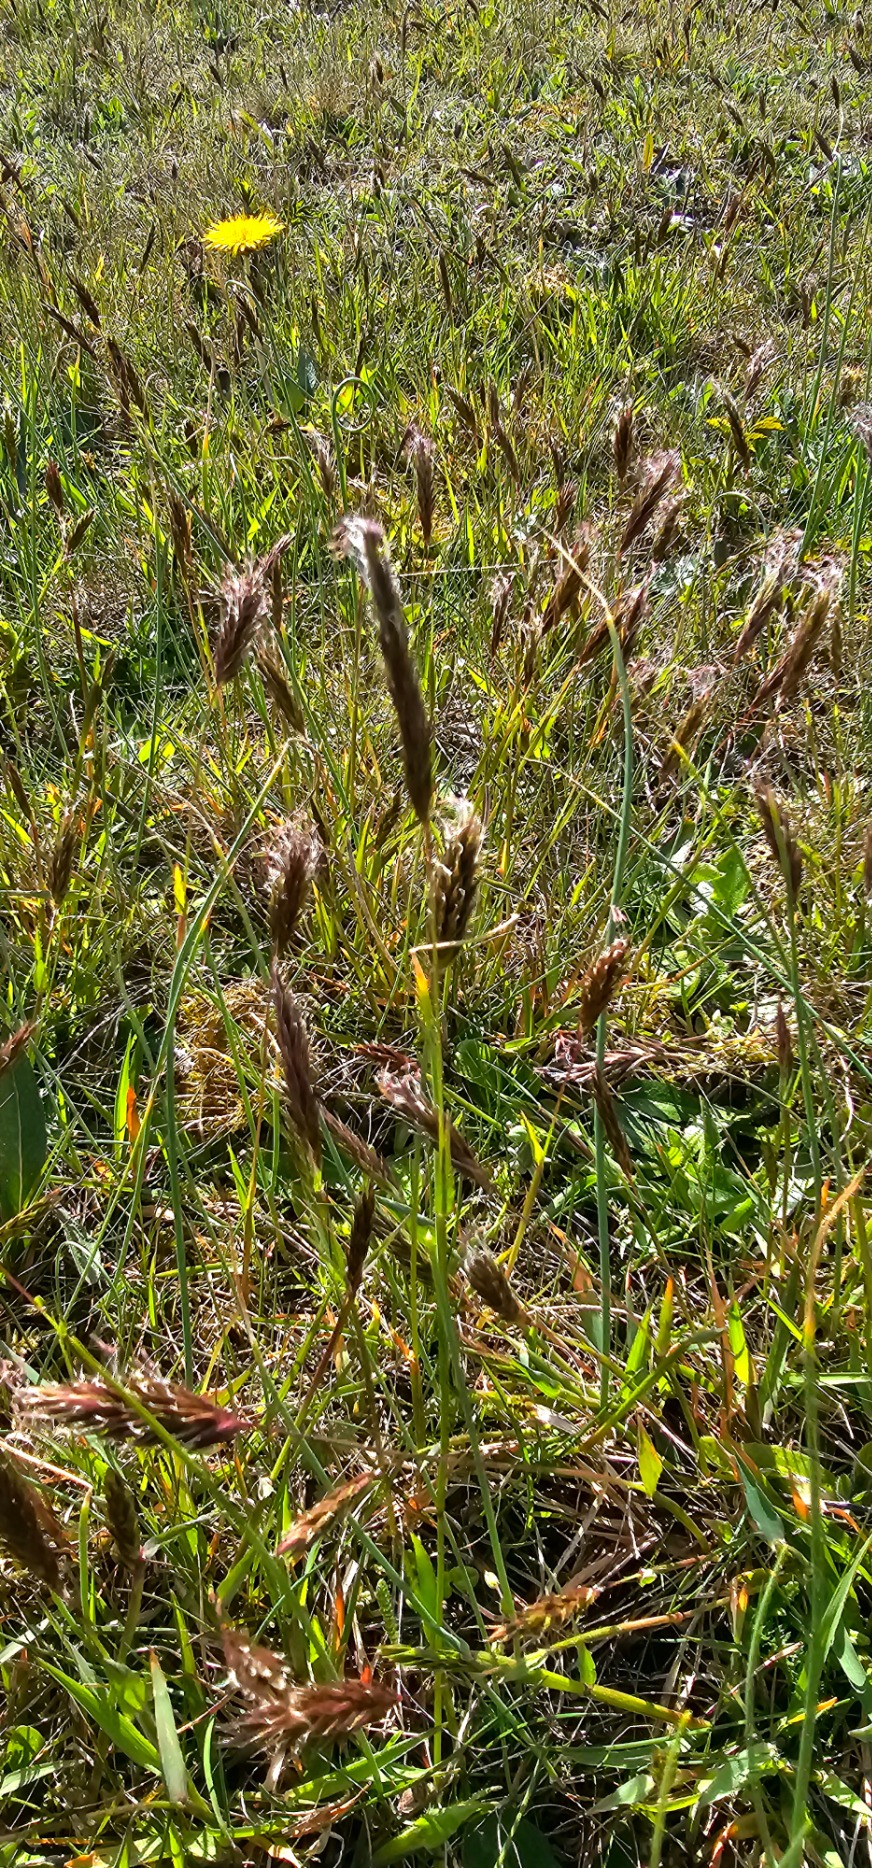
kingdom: Plantae
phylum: Tracheophyta
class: Liliopsida
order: Poales
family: Poaceae
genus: Anthoxanthum
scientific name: Anthoxanthum odoratum
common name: Vellugtende gulaks
